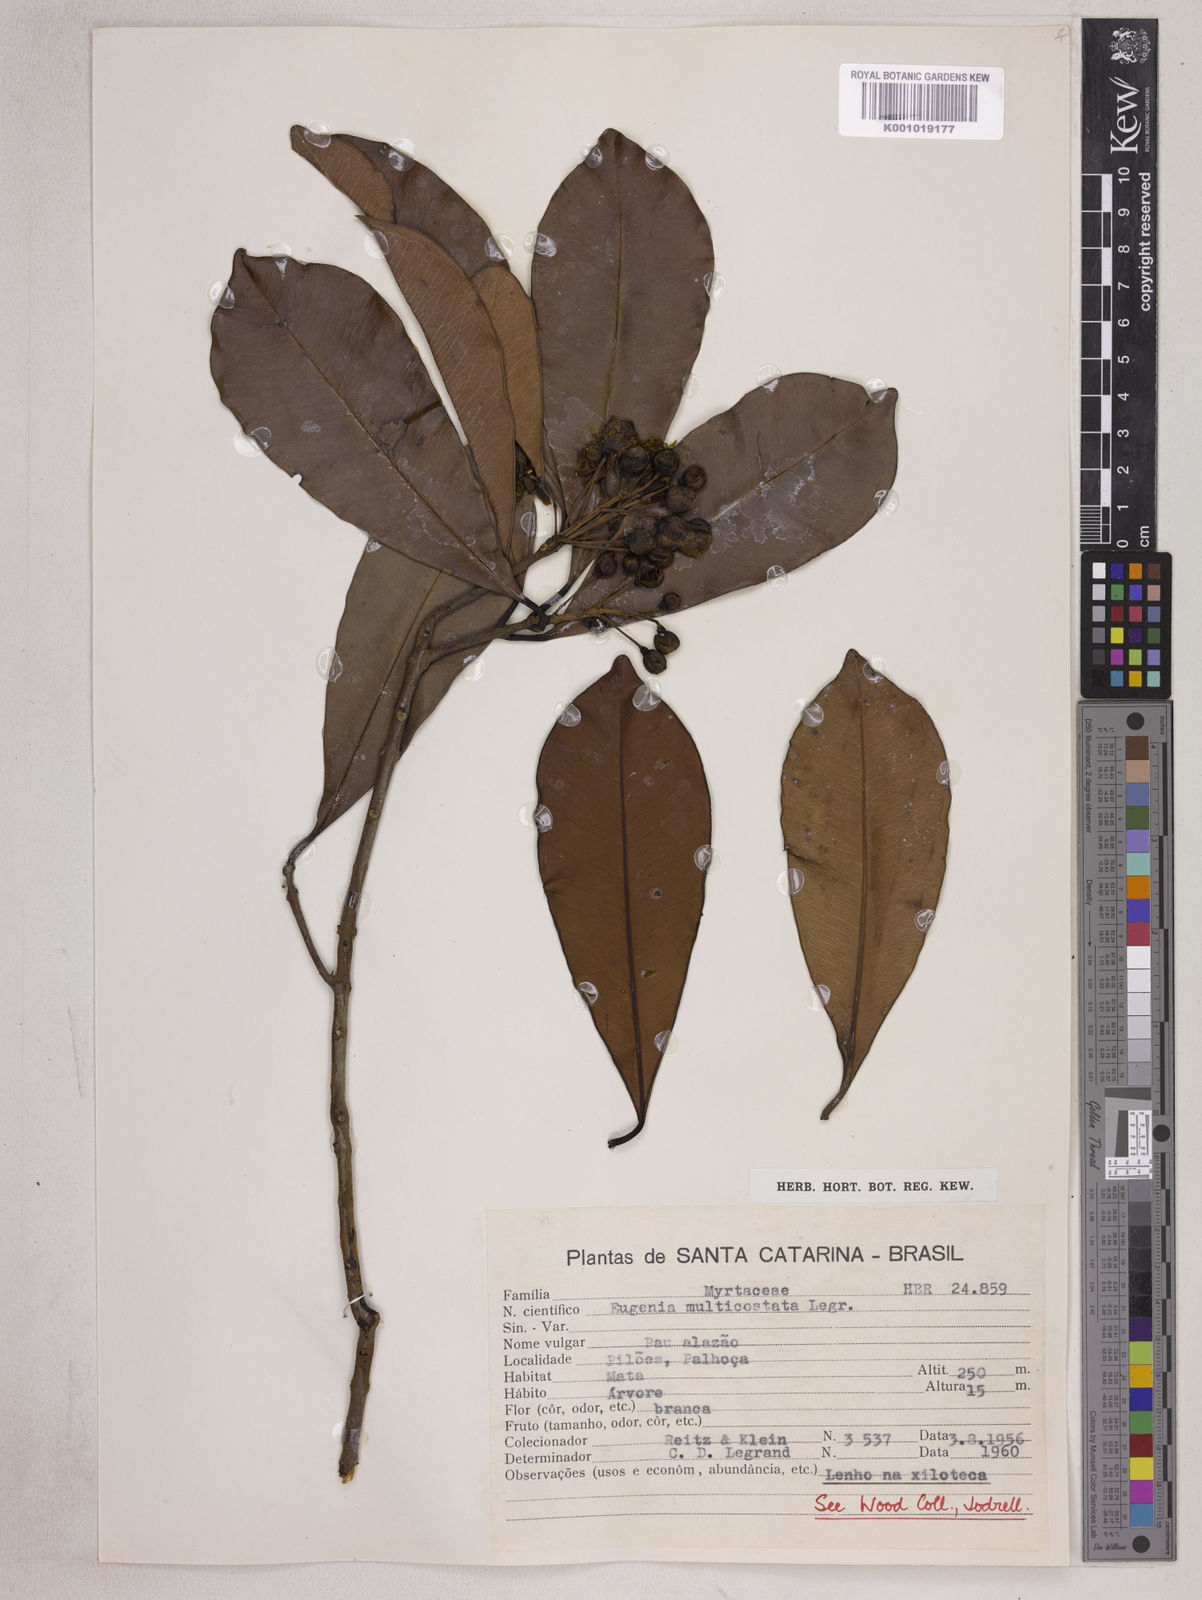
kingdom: Plantae
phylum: Tracheophyta
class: Magnoliopsida
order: Myrtales
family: Myrtaceae
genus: Eugenia
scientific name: Eugenia multicostata
